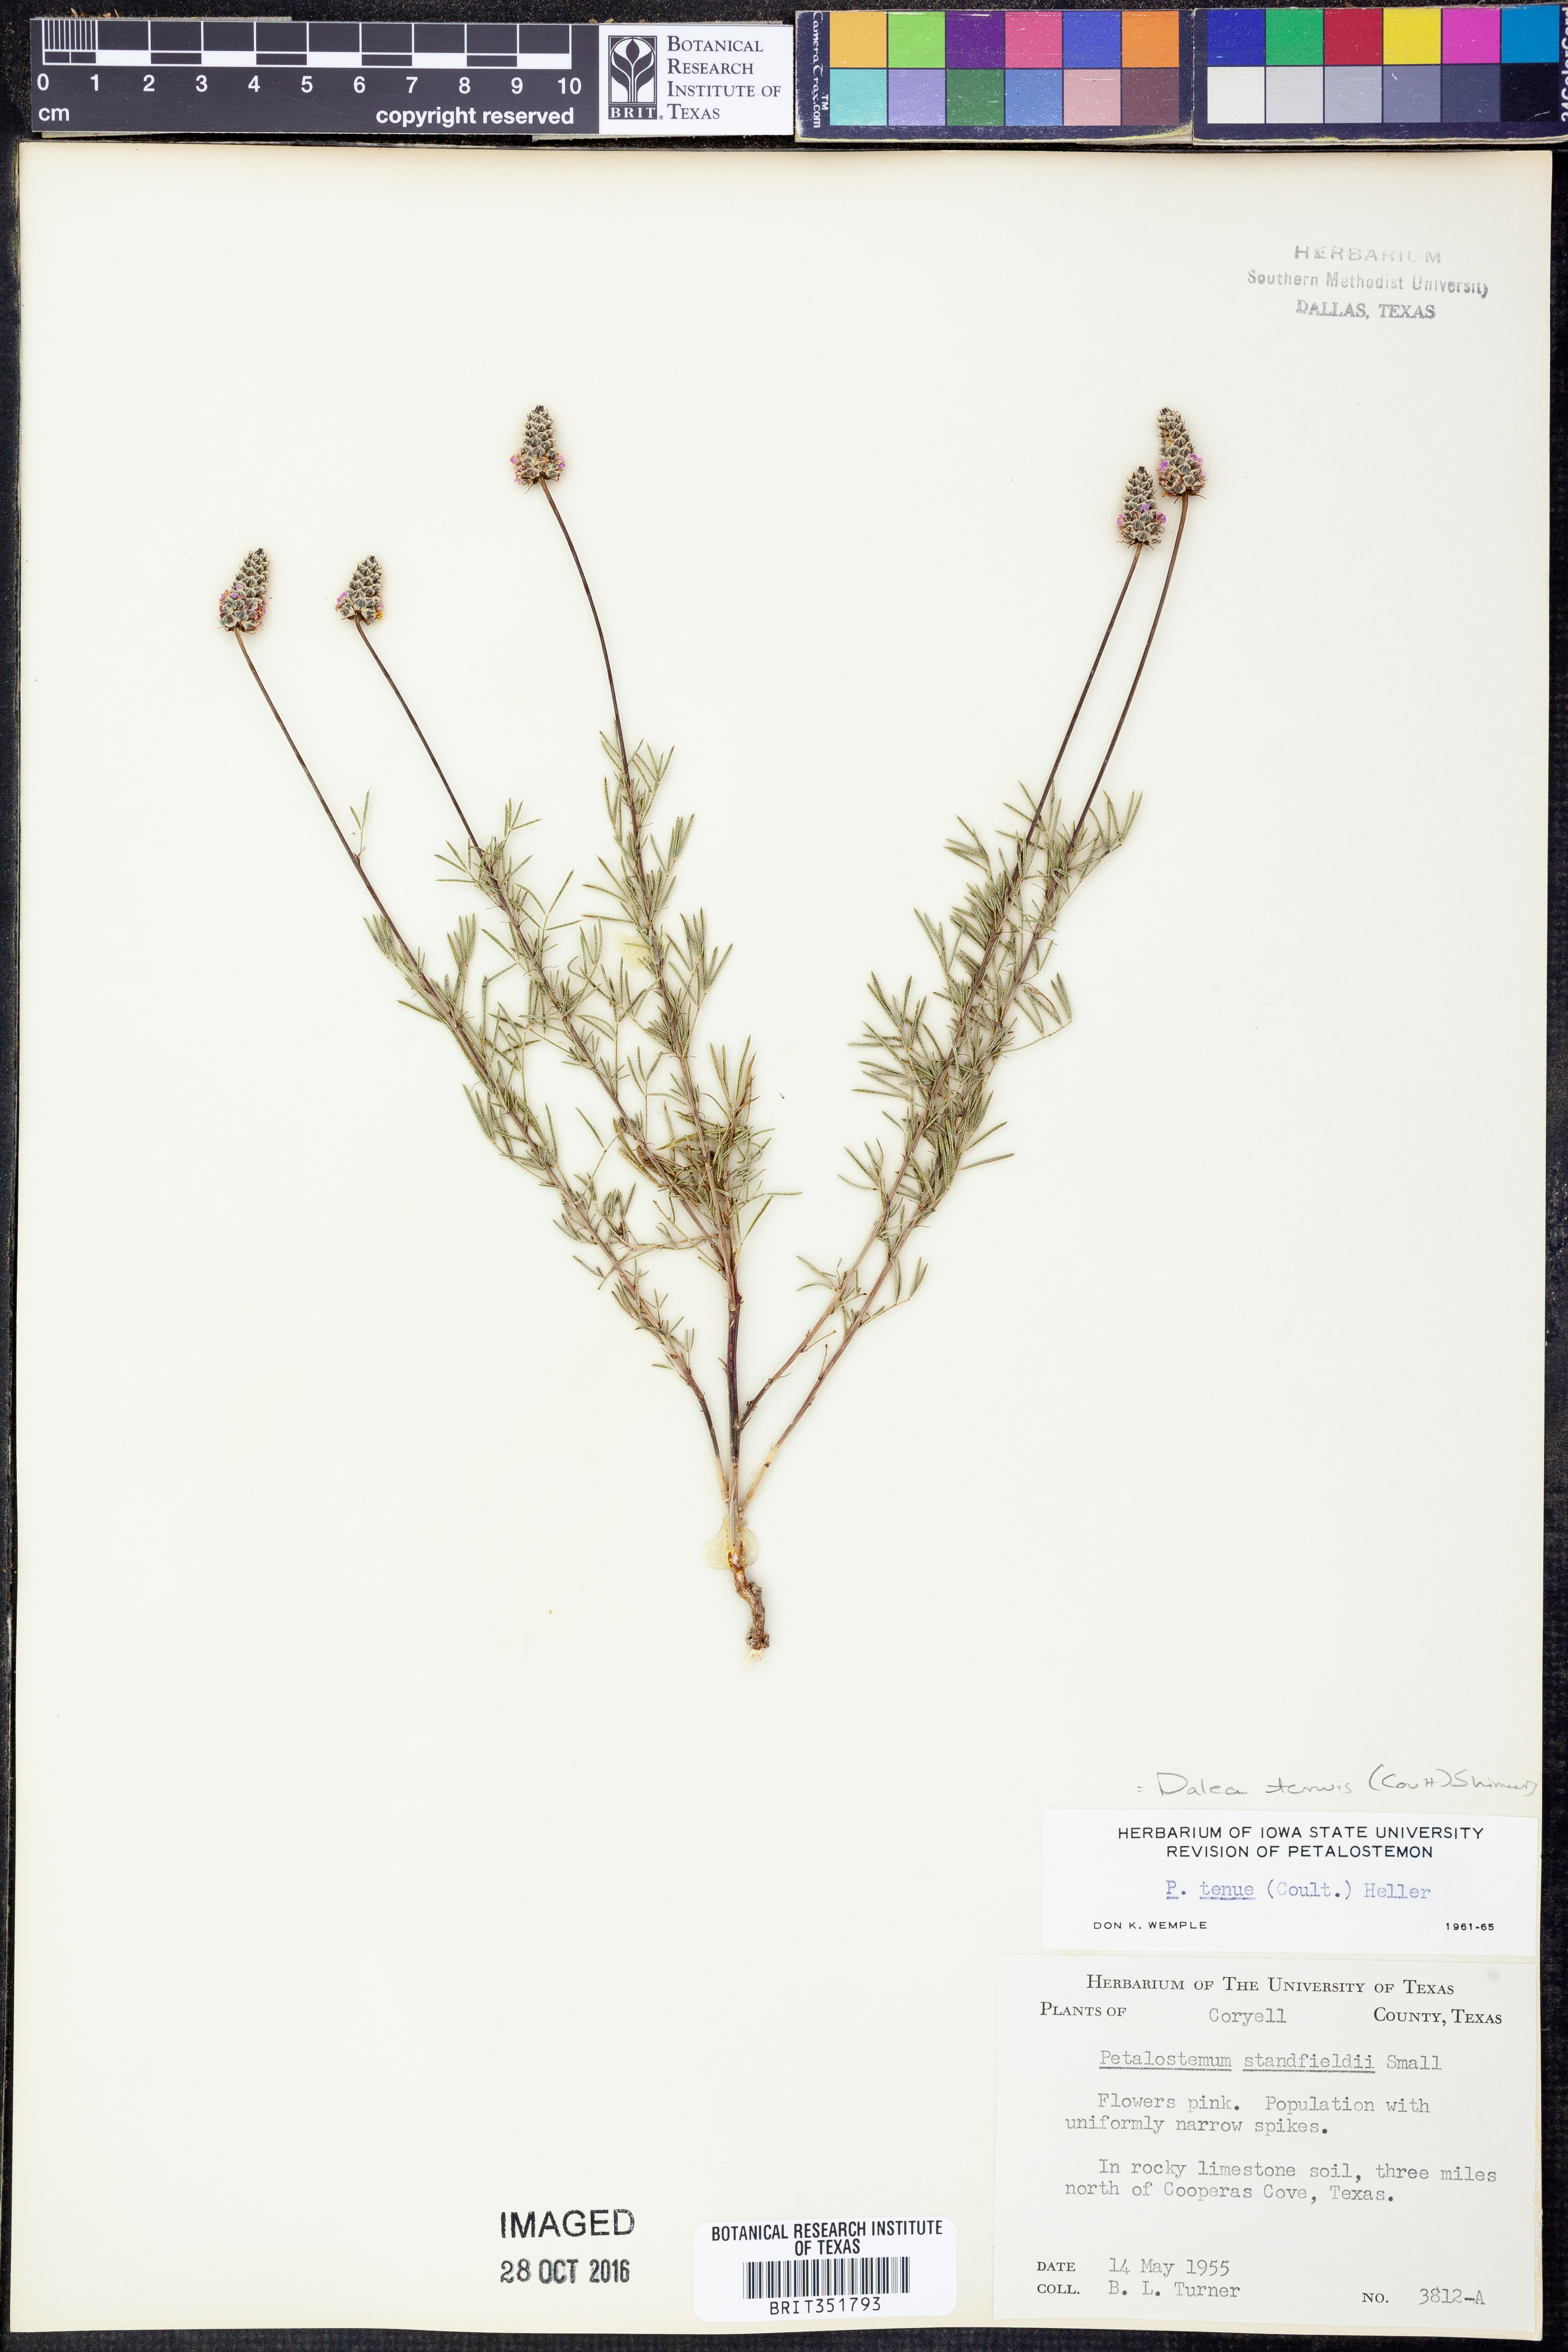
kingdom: Plantae
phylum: Tracheophyta
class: Magnoliopsida
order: Fabales
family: Fabaceae
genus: Dalea
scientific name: Dalea tenuis
